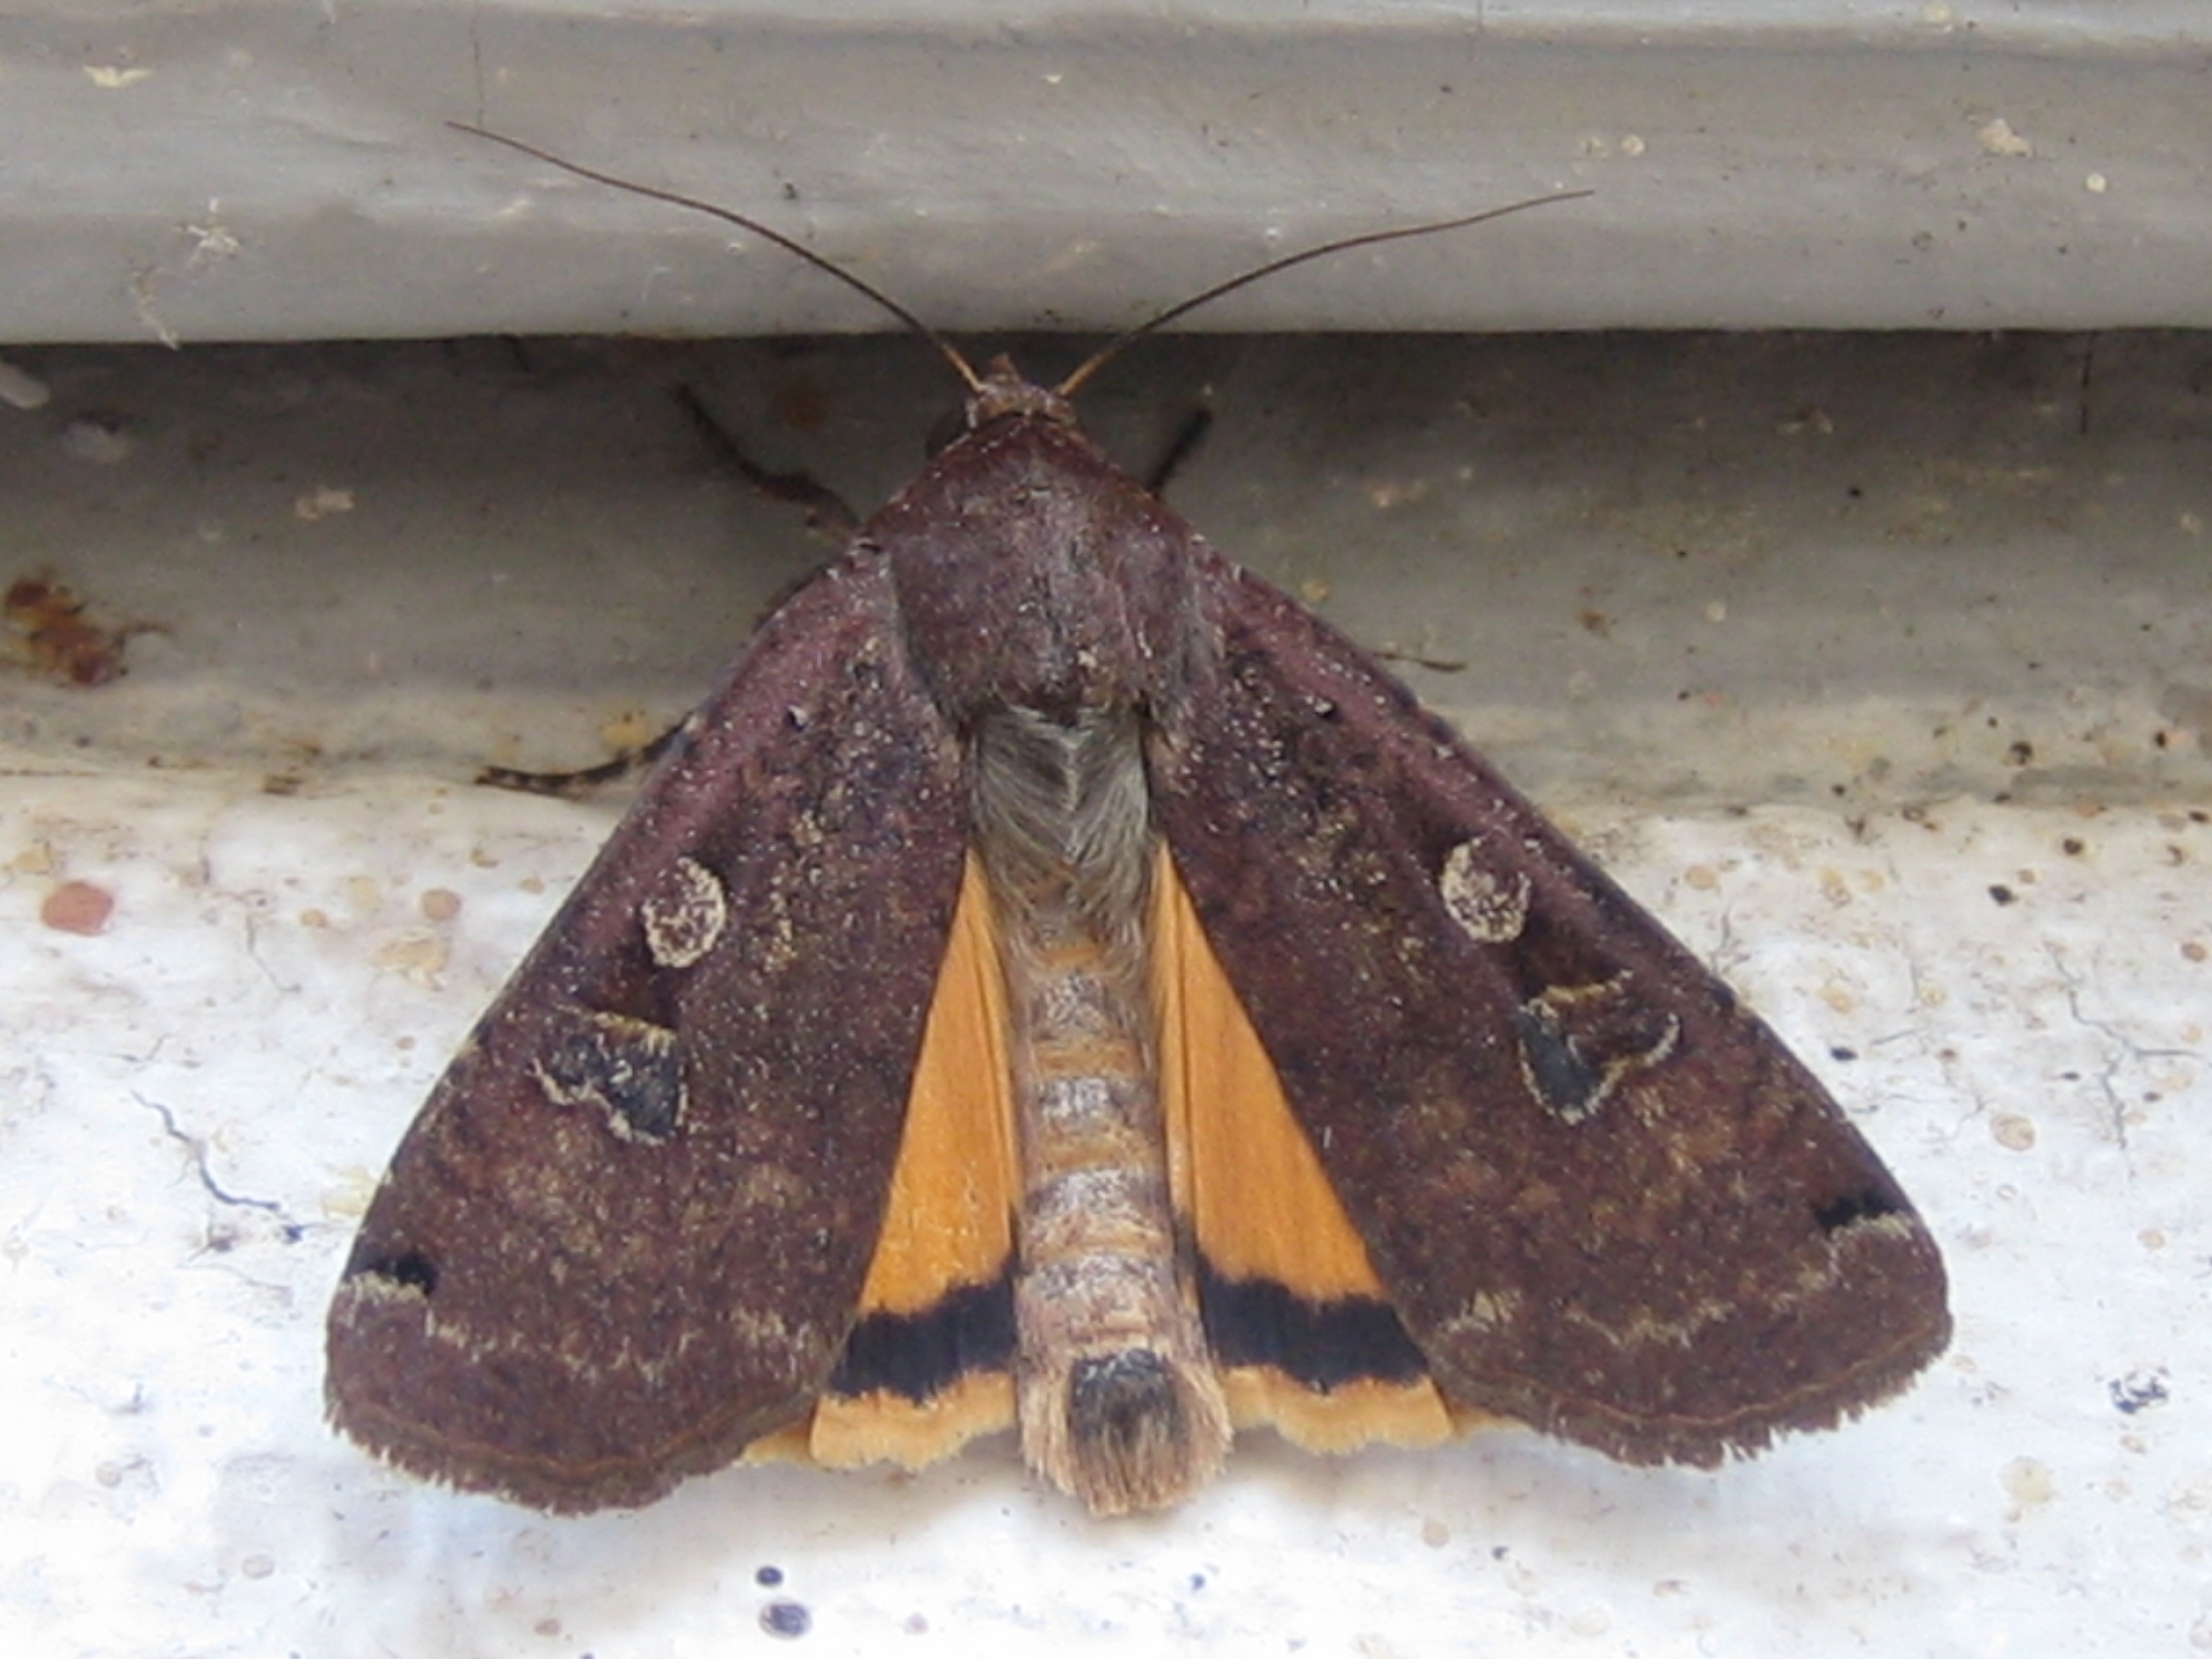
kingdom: Animalia
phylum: Arthropoda
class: Insecta
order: Lepidoptera
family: Noctuidae
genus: Noctua
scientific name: Noctua pronuba
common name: Stor smutugle
